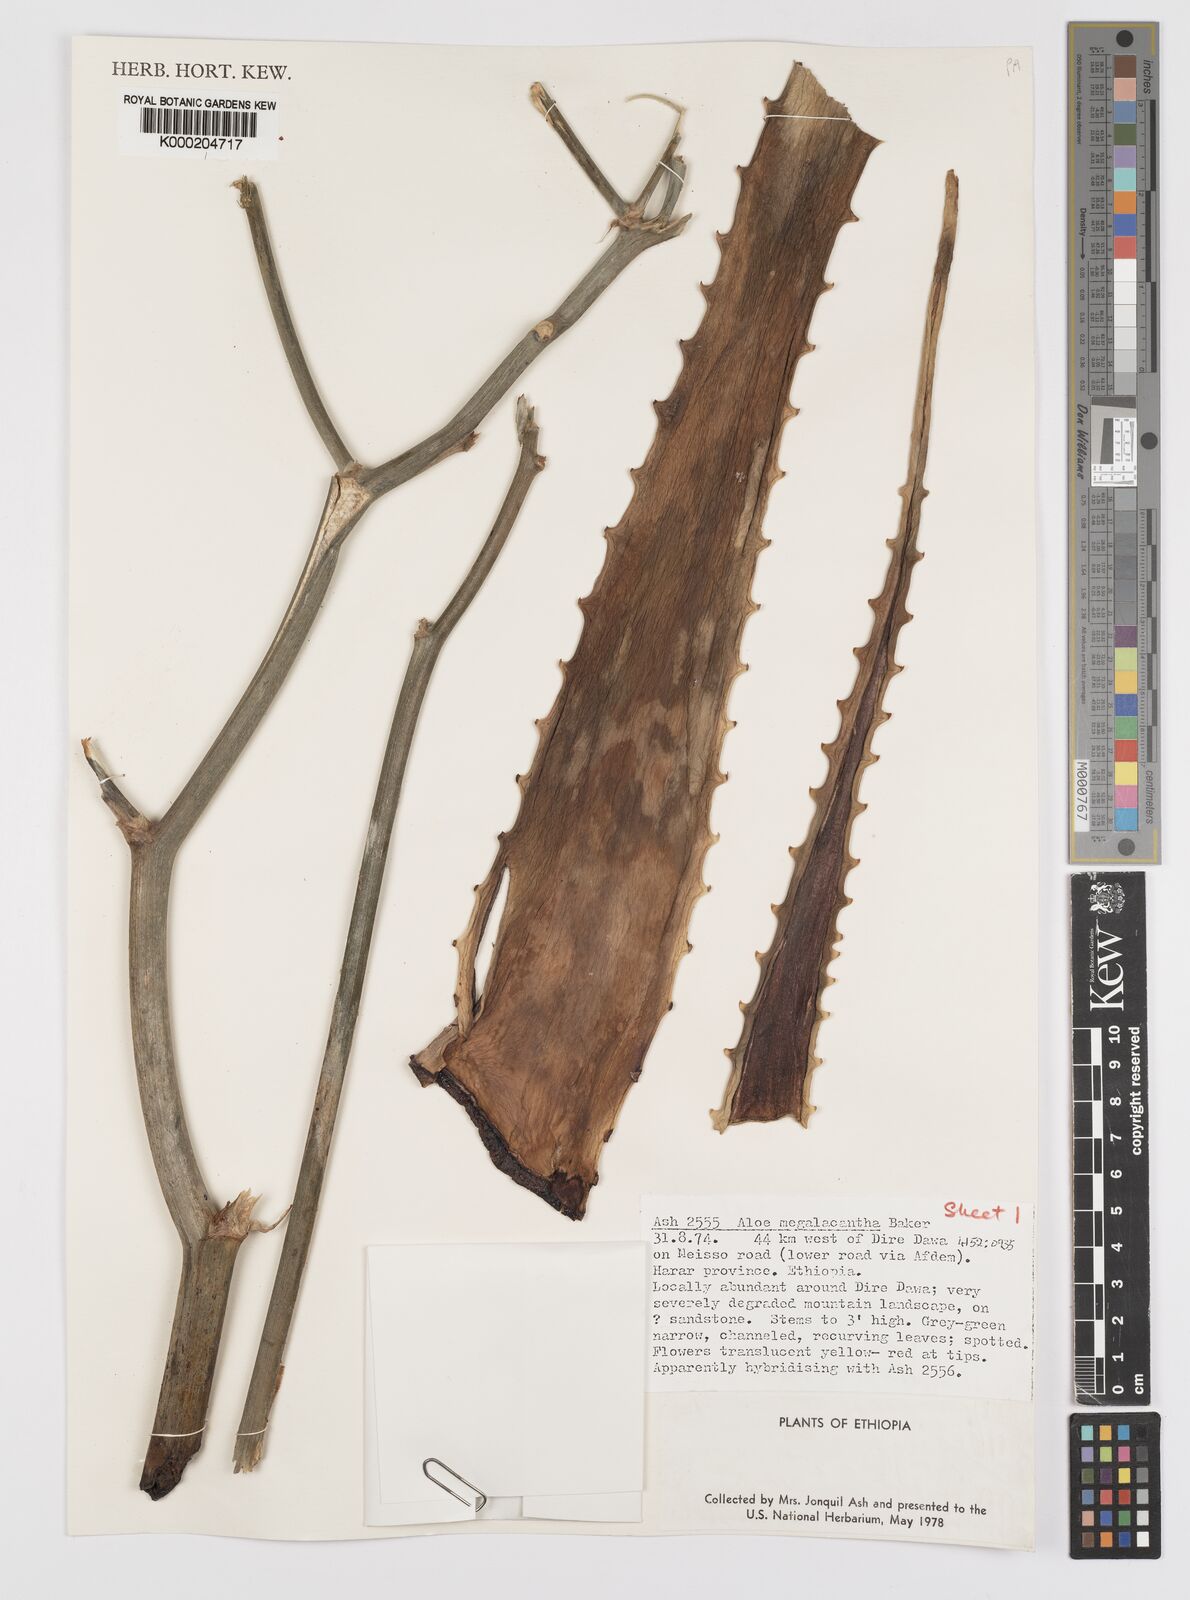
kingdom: Plantae
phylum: Tracheophyta
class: Liliopsida
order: Asparagales
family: Asphodelaceae
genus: Aloe
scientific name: Aloe megalacantha
